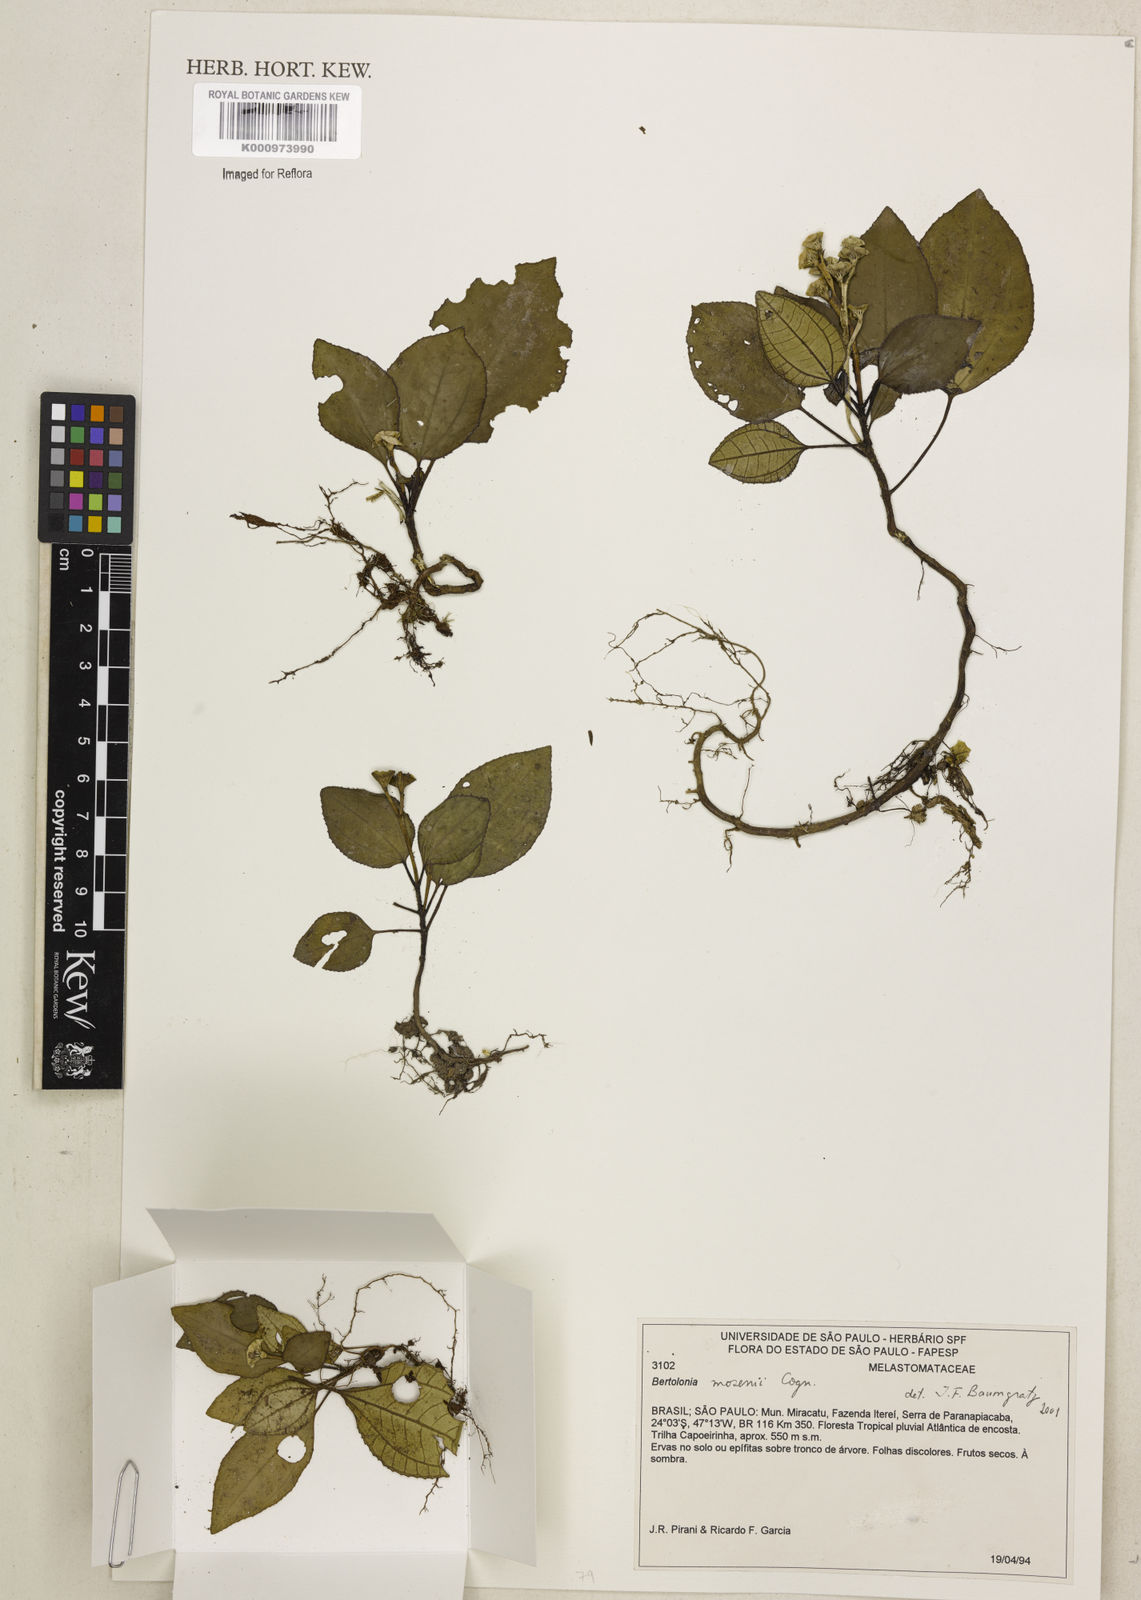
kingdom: Plantae
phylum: Tracheophyta
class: Magnoliopsida
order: Myrtales
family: Melastomataceae
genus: Bertolonia
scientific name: Bertolonia mosenii
